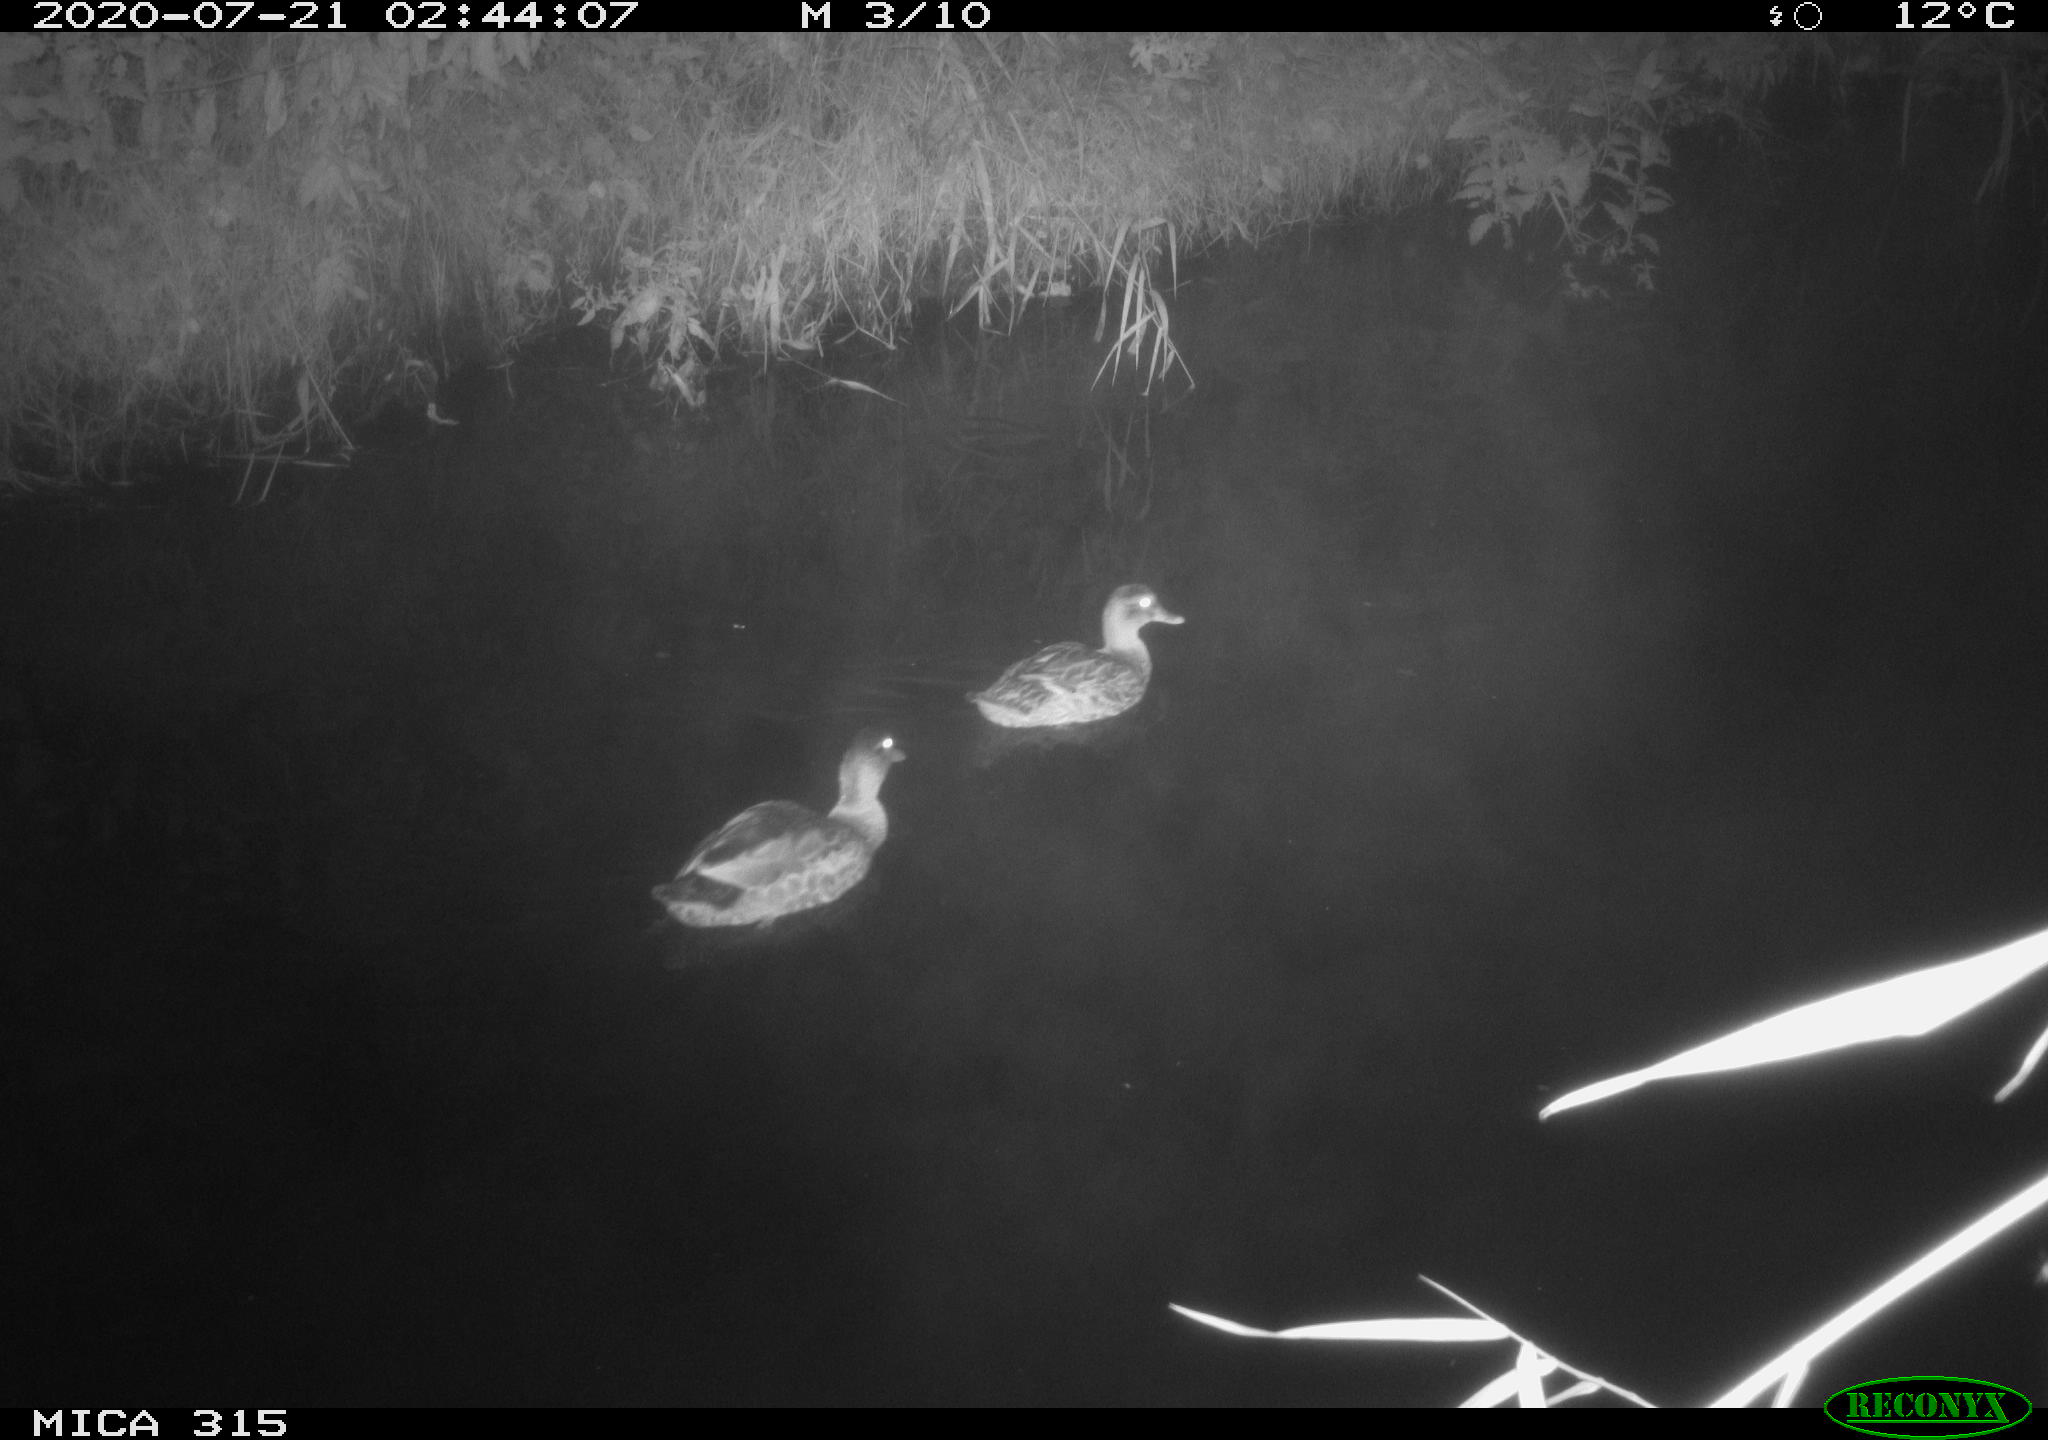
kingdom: Animalia
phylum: Chordata
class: Aves
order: Anseriformes
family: Anatidae
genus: Anas
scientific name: Anas platyrhynchos
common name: Mallard
